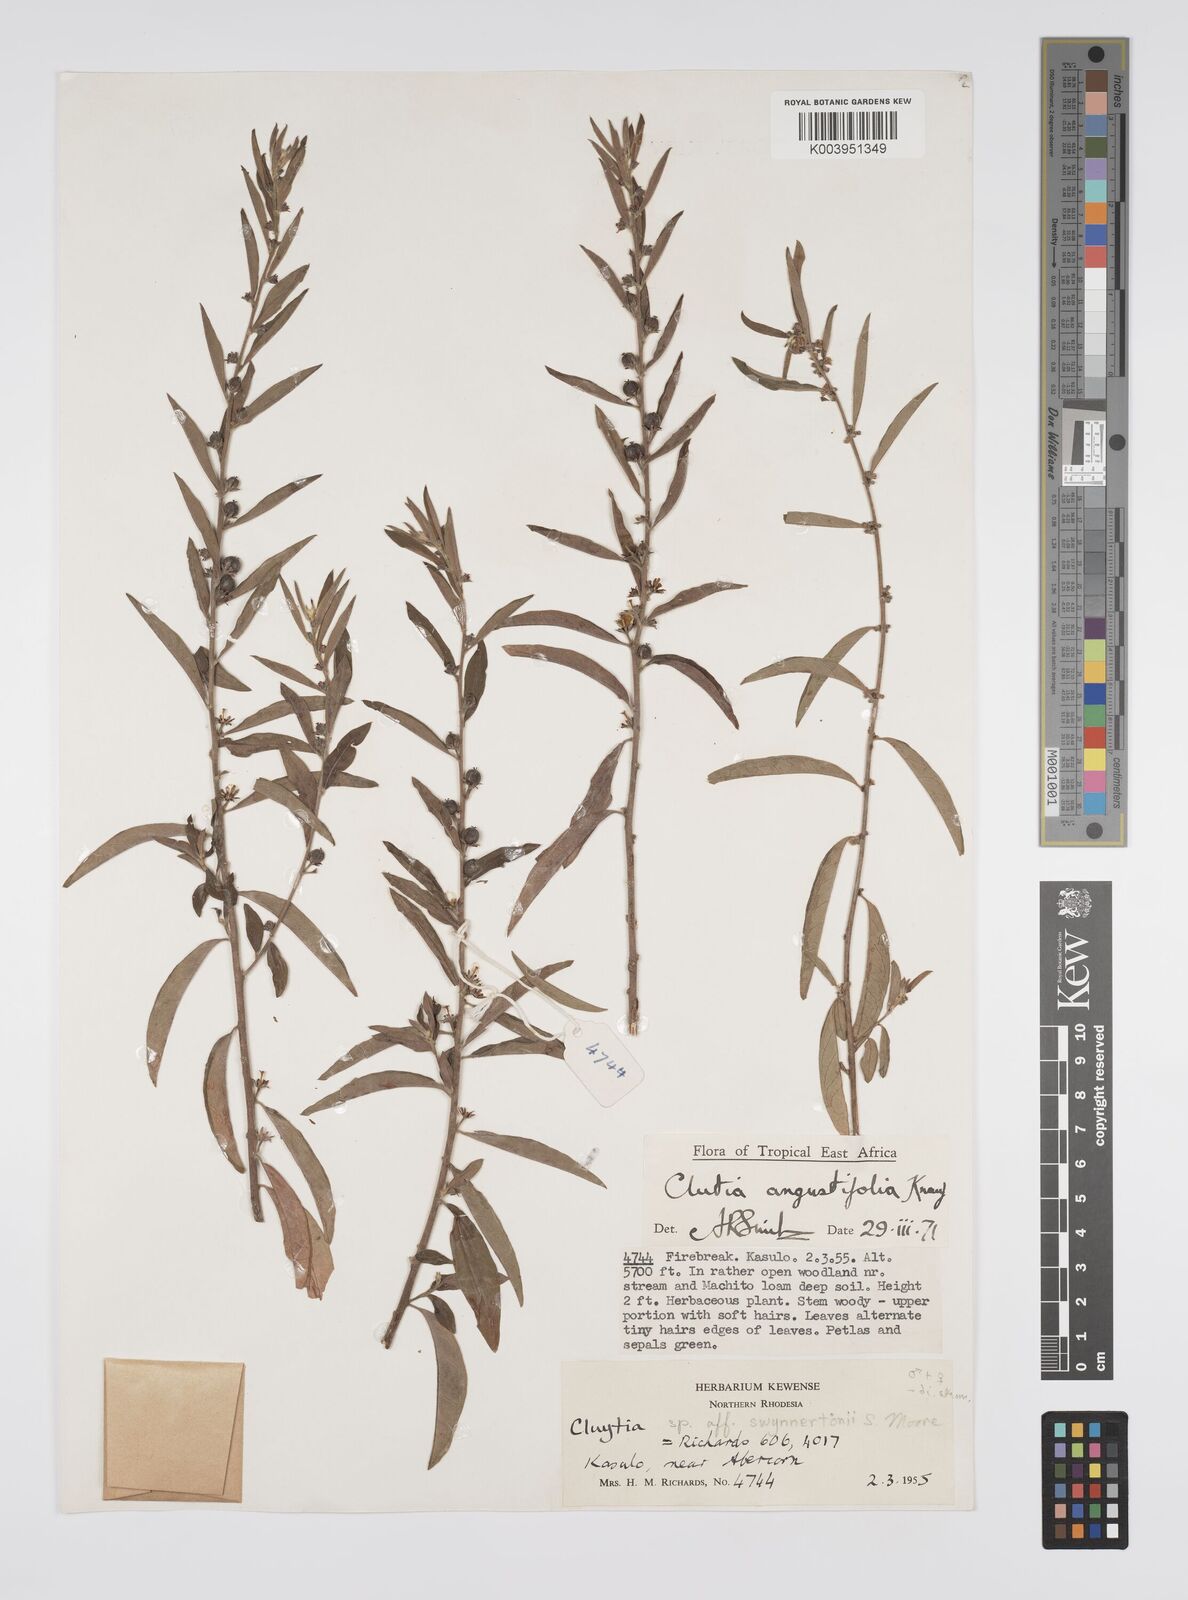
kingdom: Plantae
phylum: Tracheophyta
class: Magnoliopsida
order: Malpighiales
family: Peraceae
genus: Clutia
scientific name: Clutia angustifolia
